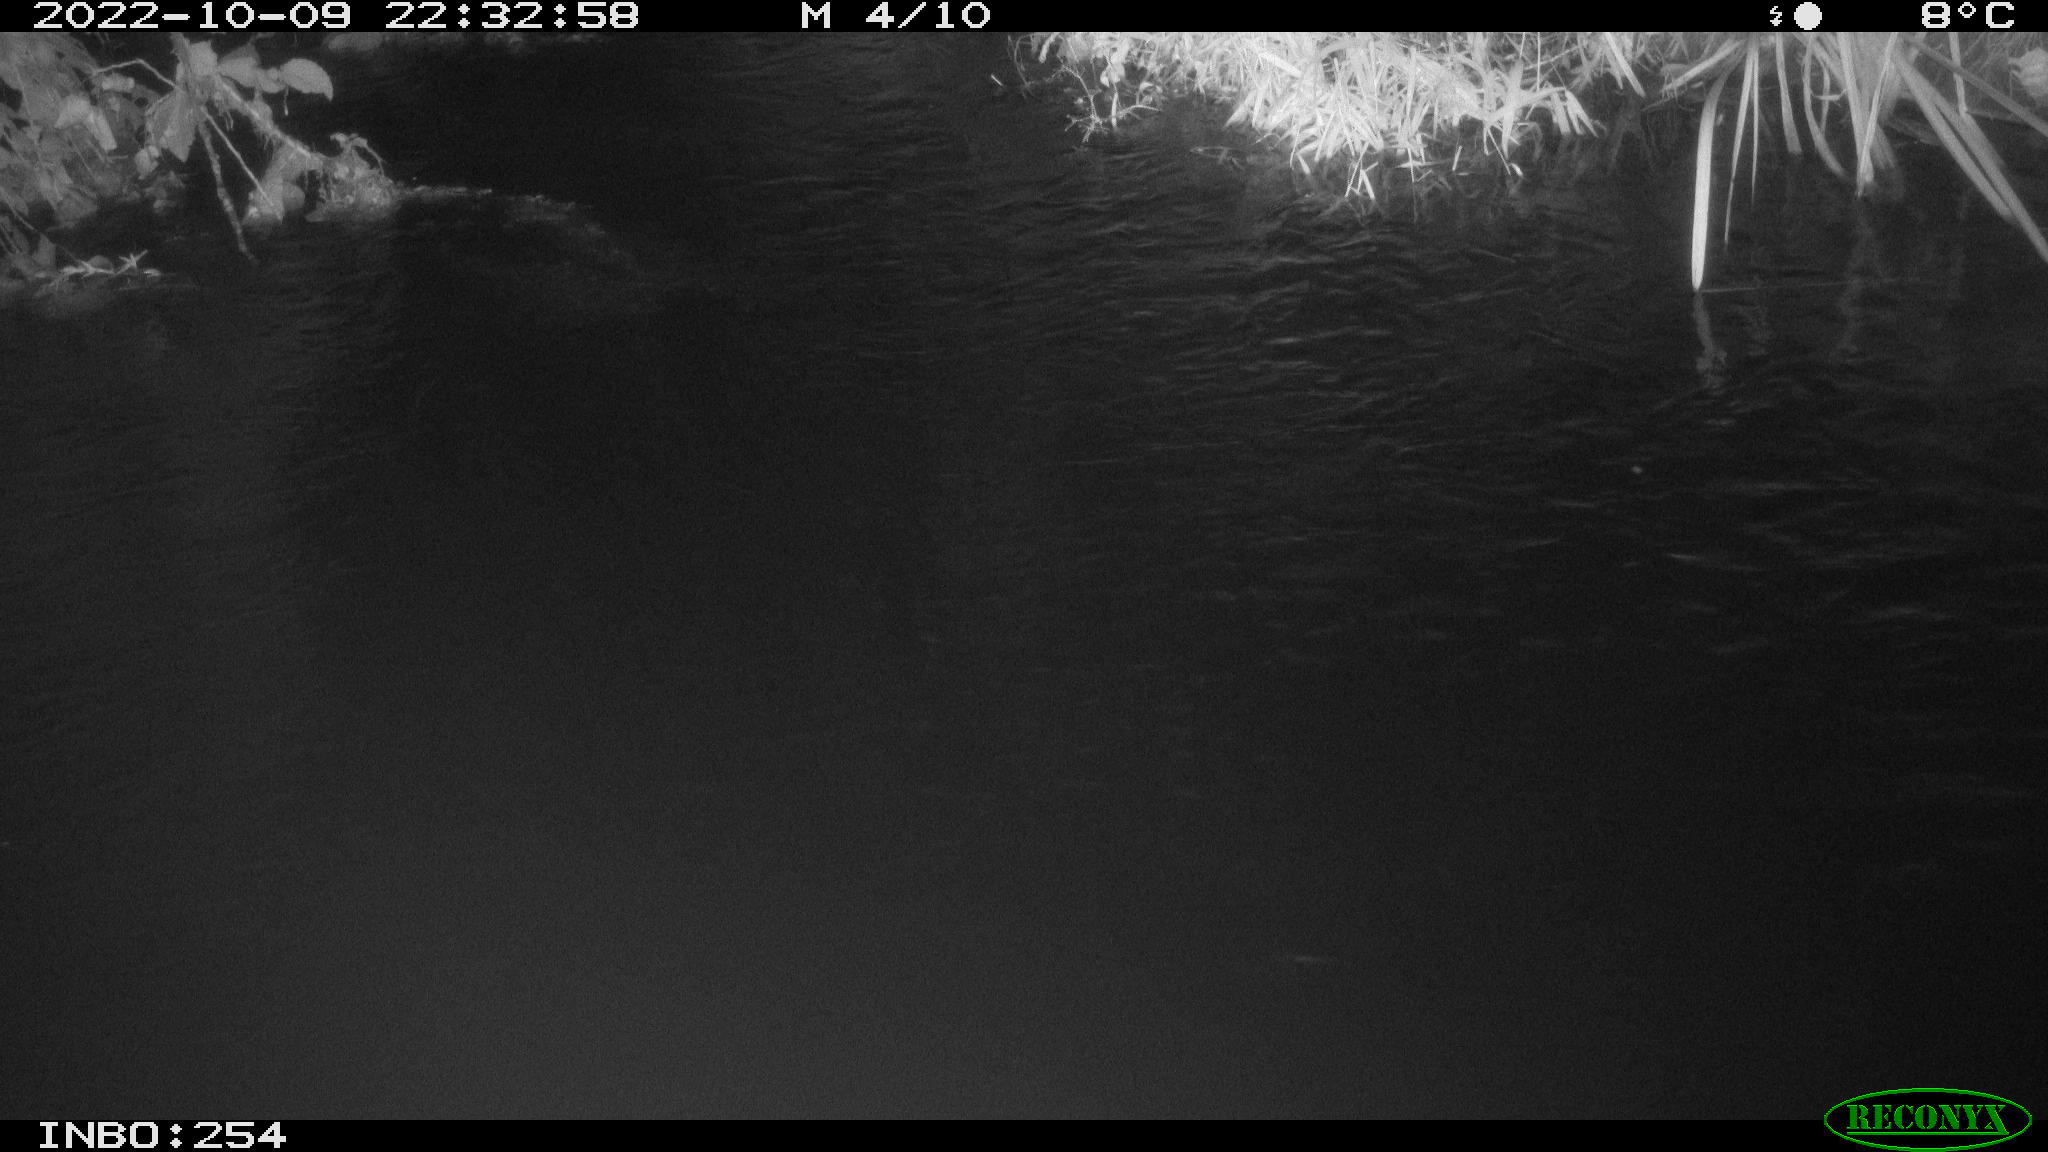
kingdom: Animalia
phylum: Chordata
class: Aves
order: Anseriformes
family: Anatidae
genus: Anas
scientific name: Anas
